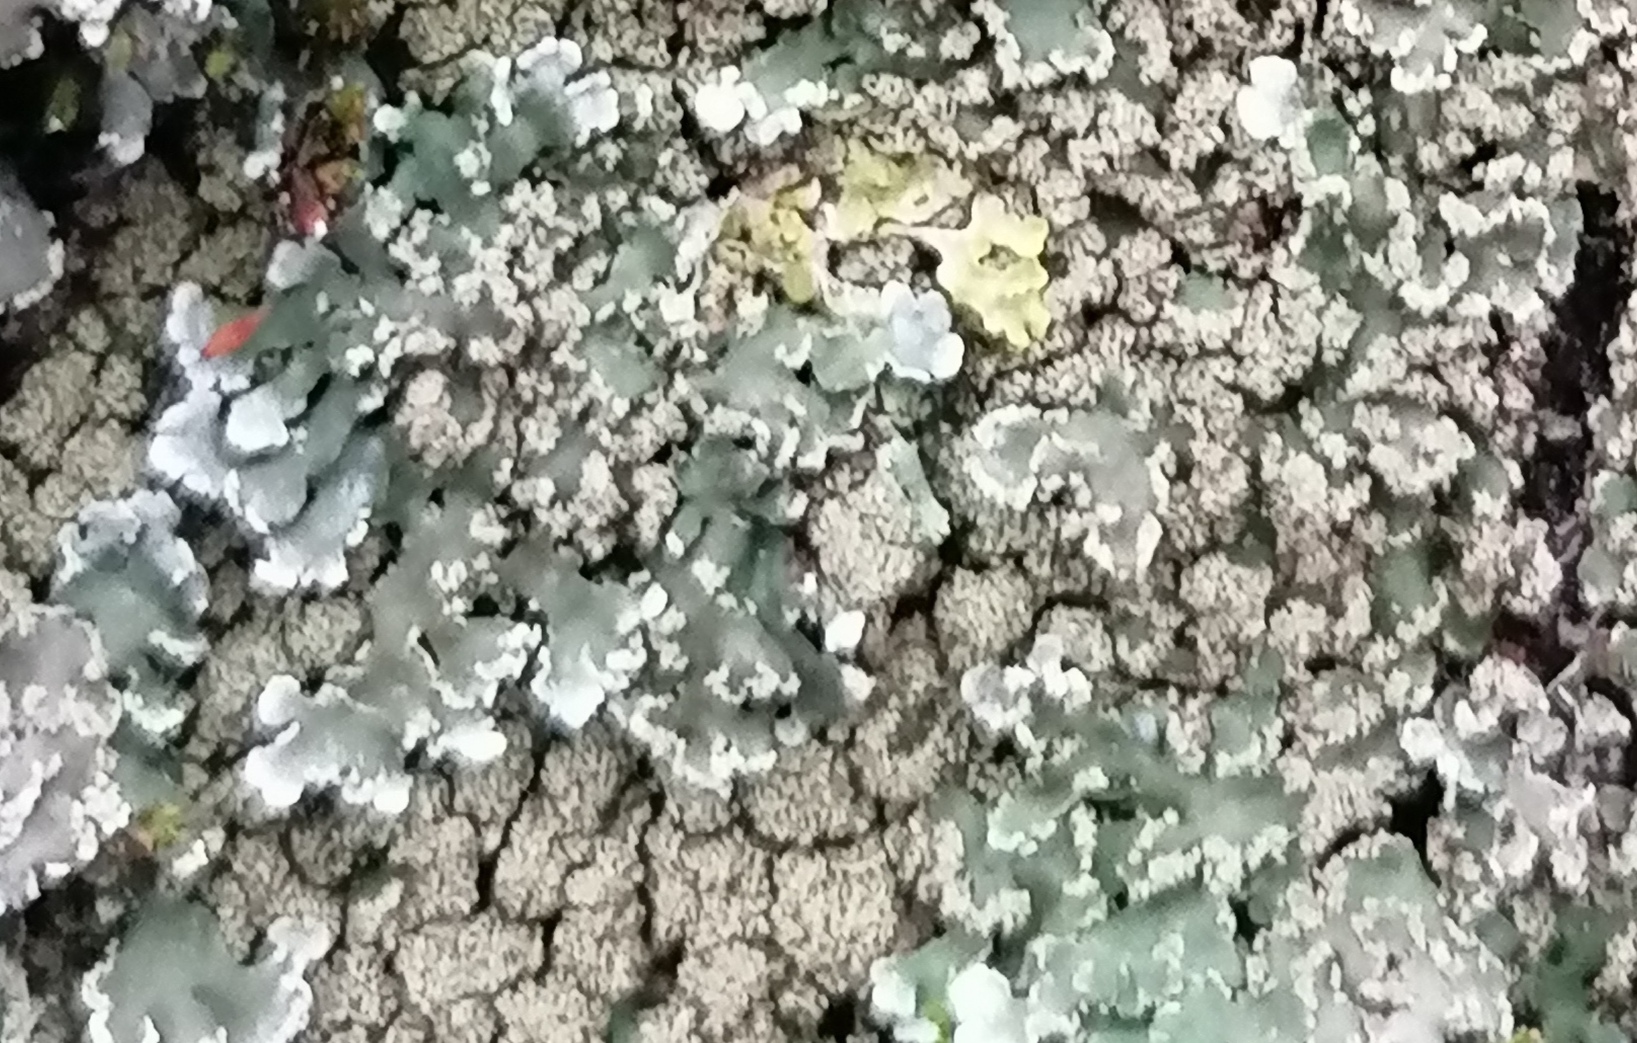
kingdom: Fungi
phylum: Ascomycota
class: Lecanoromycetes
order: Caliciales
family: Physciaceae
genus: Poeltonia
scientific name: Poeltonia grisea
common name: hvidgrå dugrosetlav
